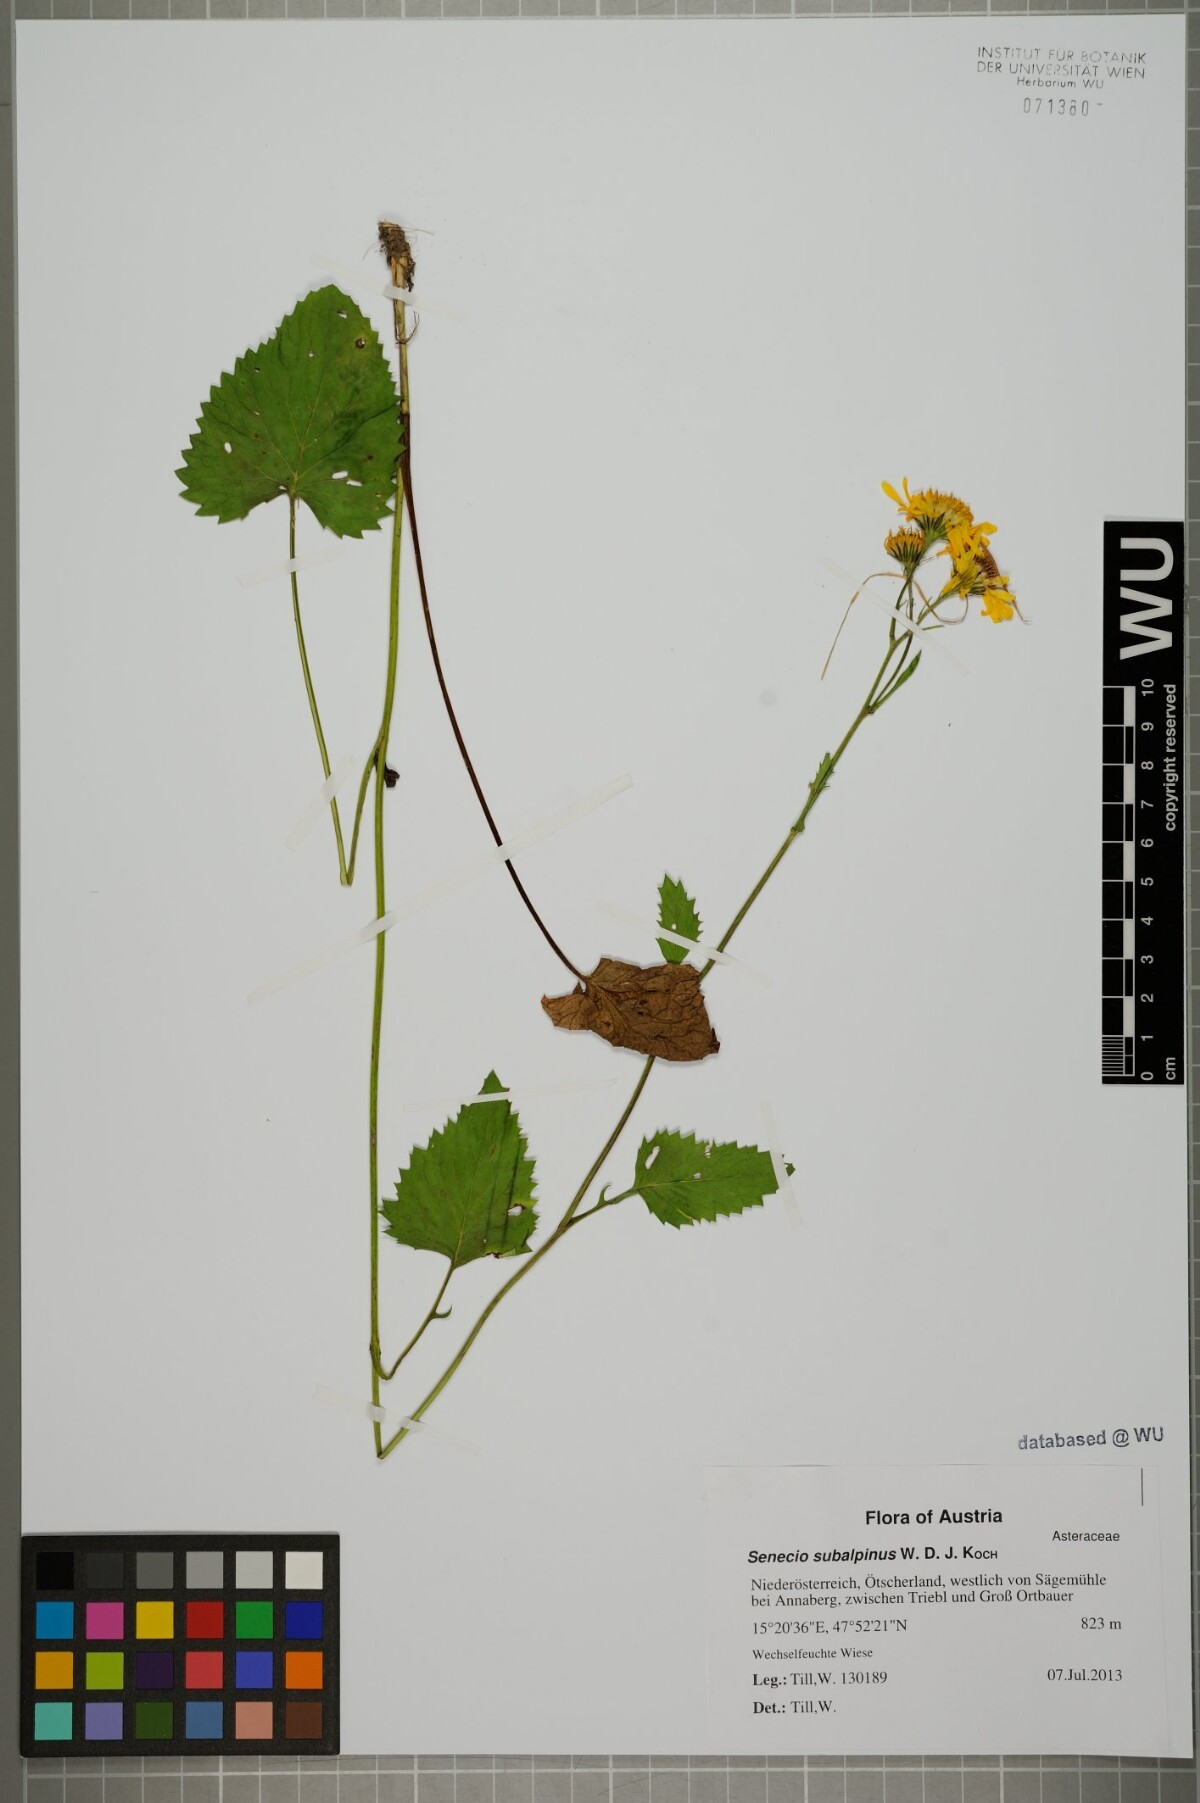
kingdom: Plantae
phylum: Tracheophyta
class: Magnoliopsida
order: Asterales
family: Asteraceae
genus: Jacobaea
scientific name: Jacobaea subalpina
